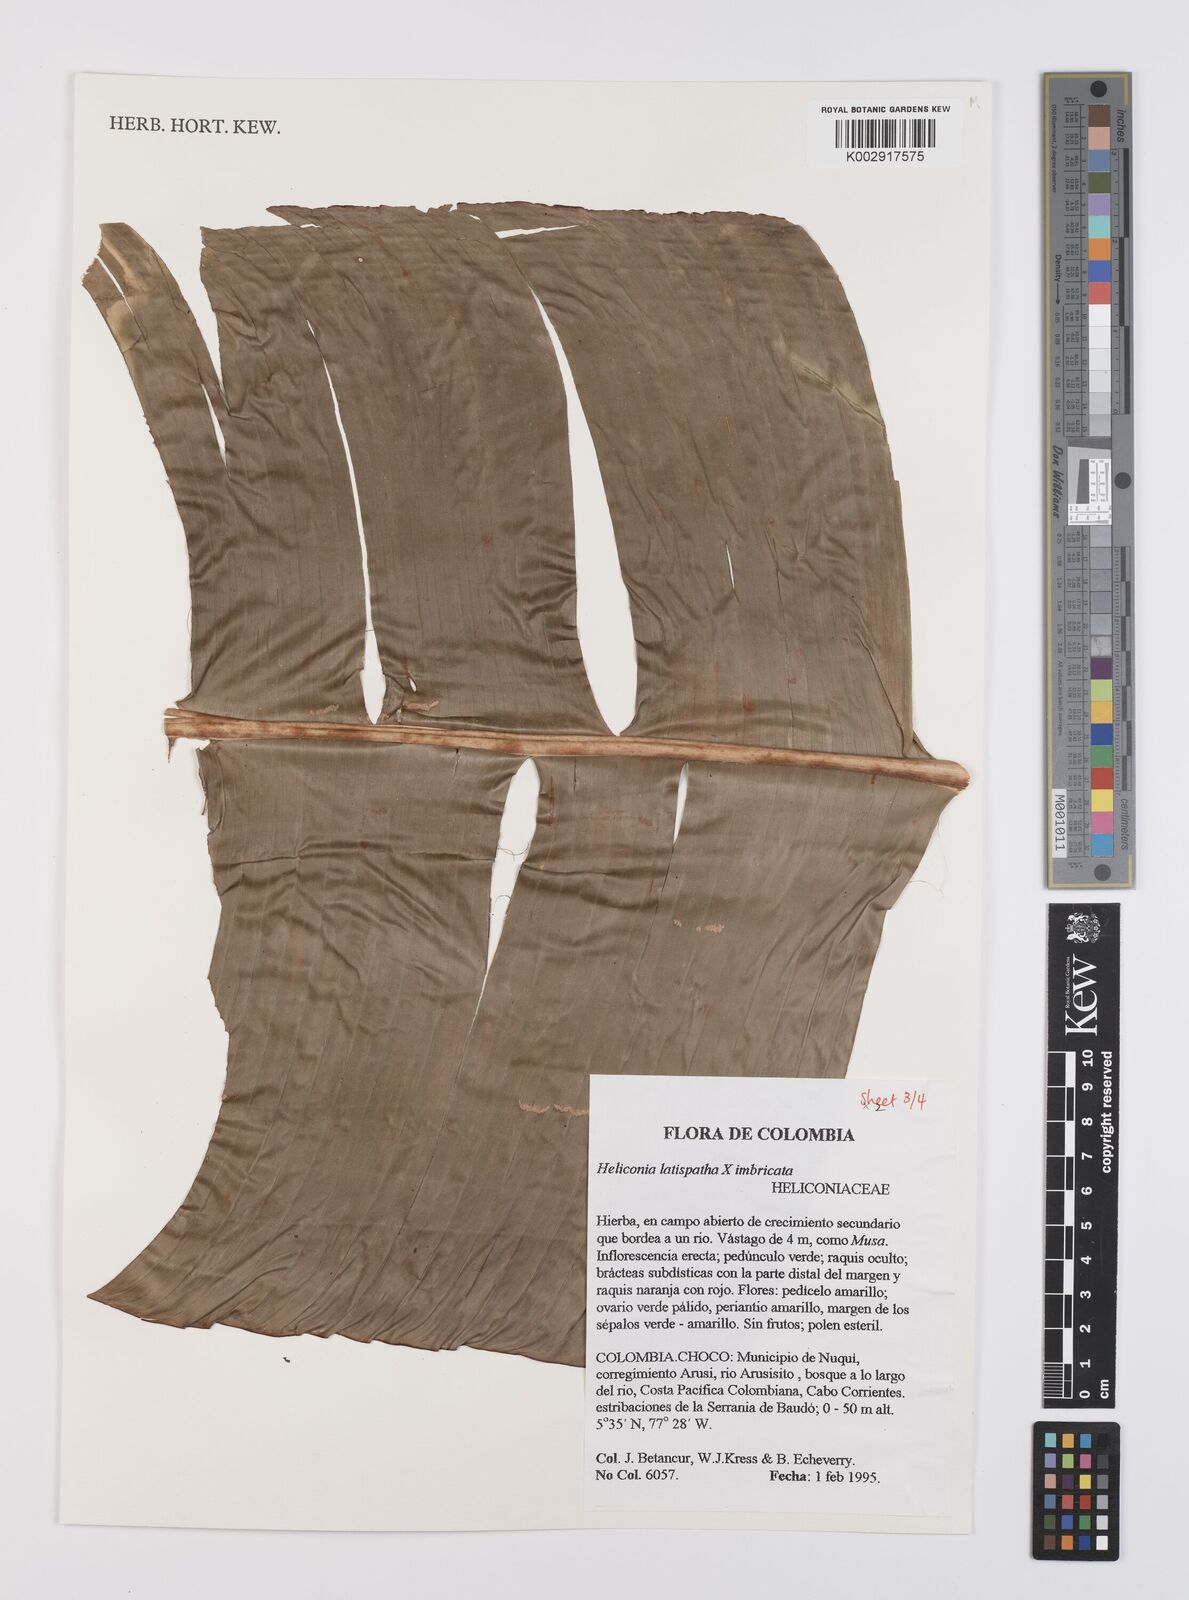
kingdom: Plantae
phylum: Tracheophyta
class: Liliopsida
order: Zingiberales
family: Heliconiaceae
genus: Heliconia
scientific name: Heliconia latispatha
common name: Expanded lobsterclaw
